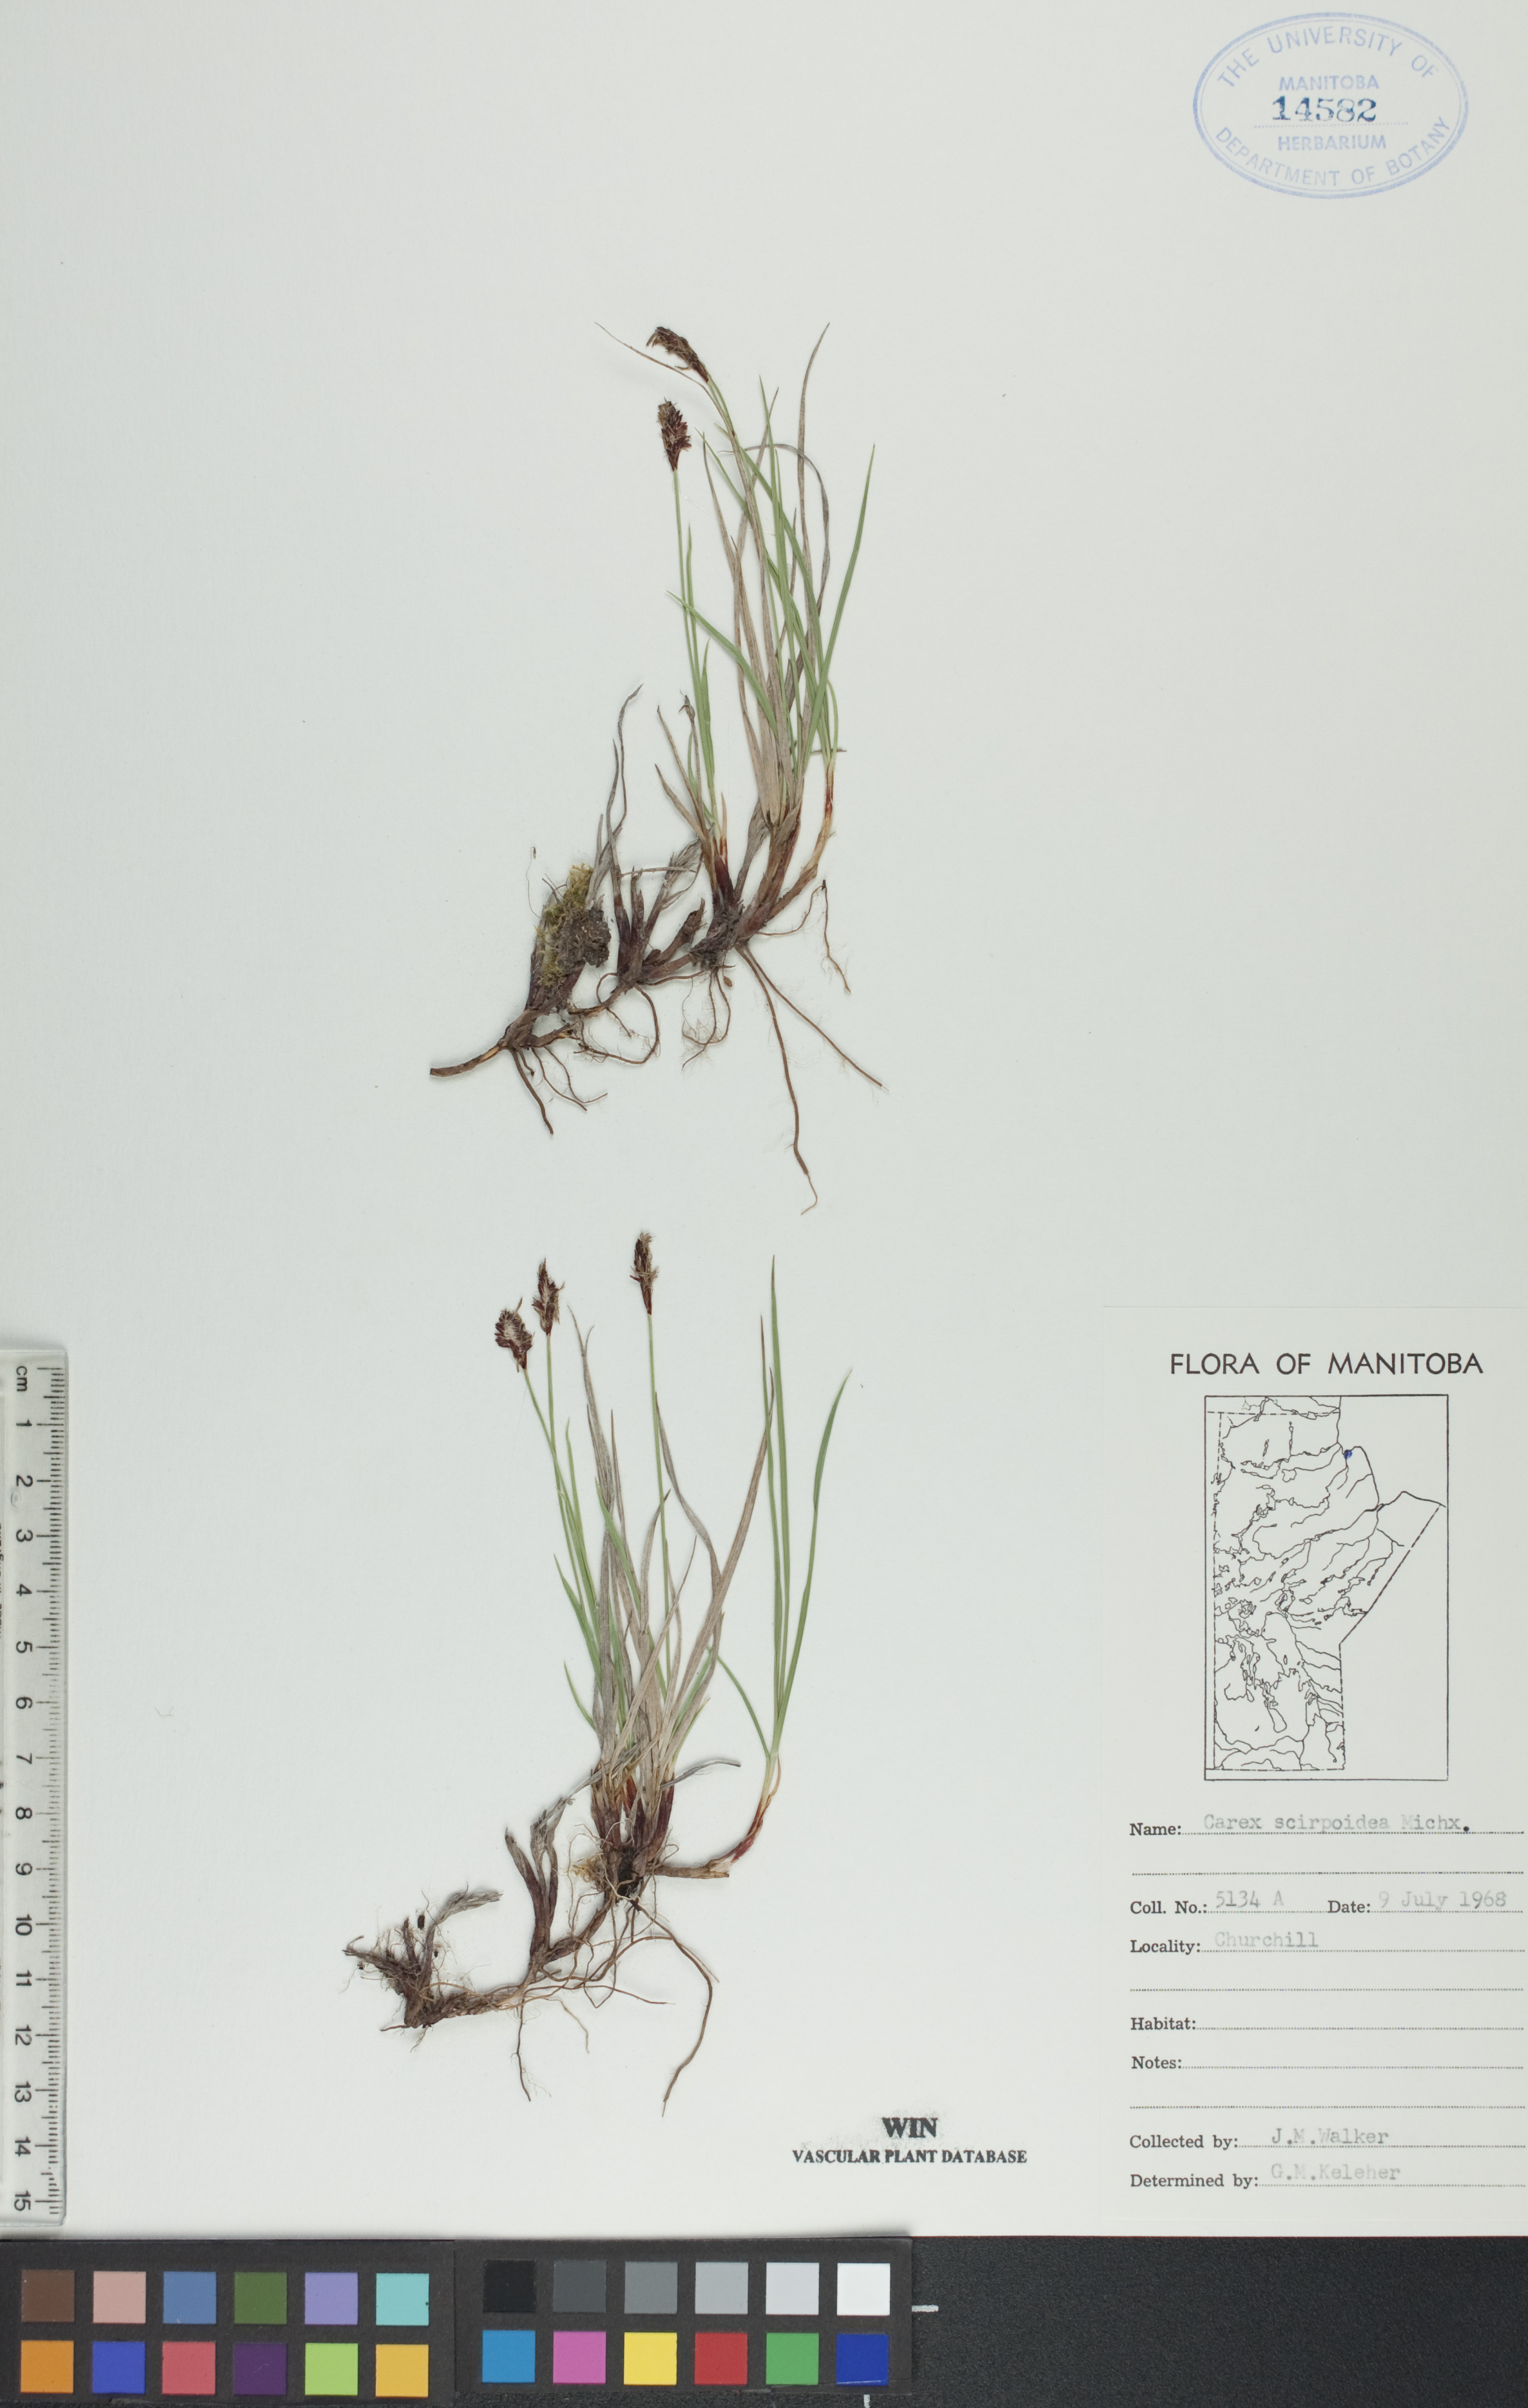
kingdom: Plantae
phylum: Tracheophyta
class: Liliopsida
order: Poales
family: Cyperaceae
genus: Carex
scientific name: Carex scirpoidea
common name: Canada single-spike sedge
